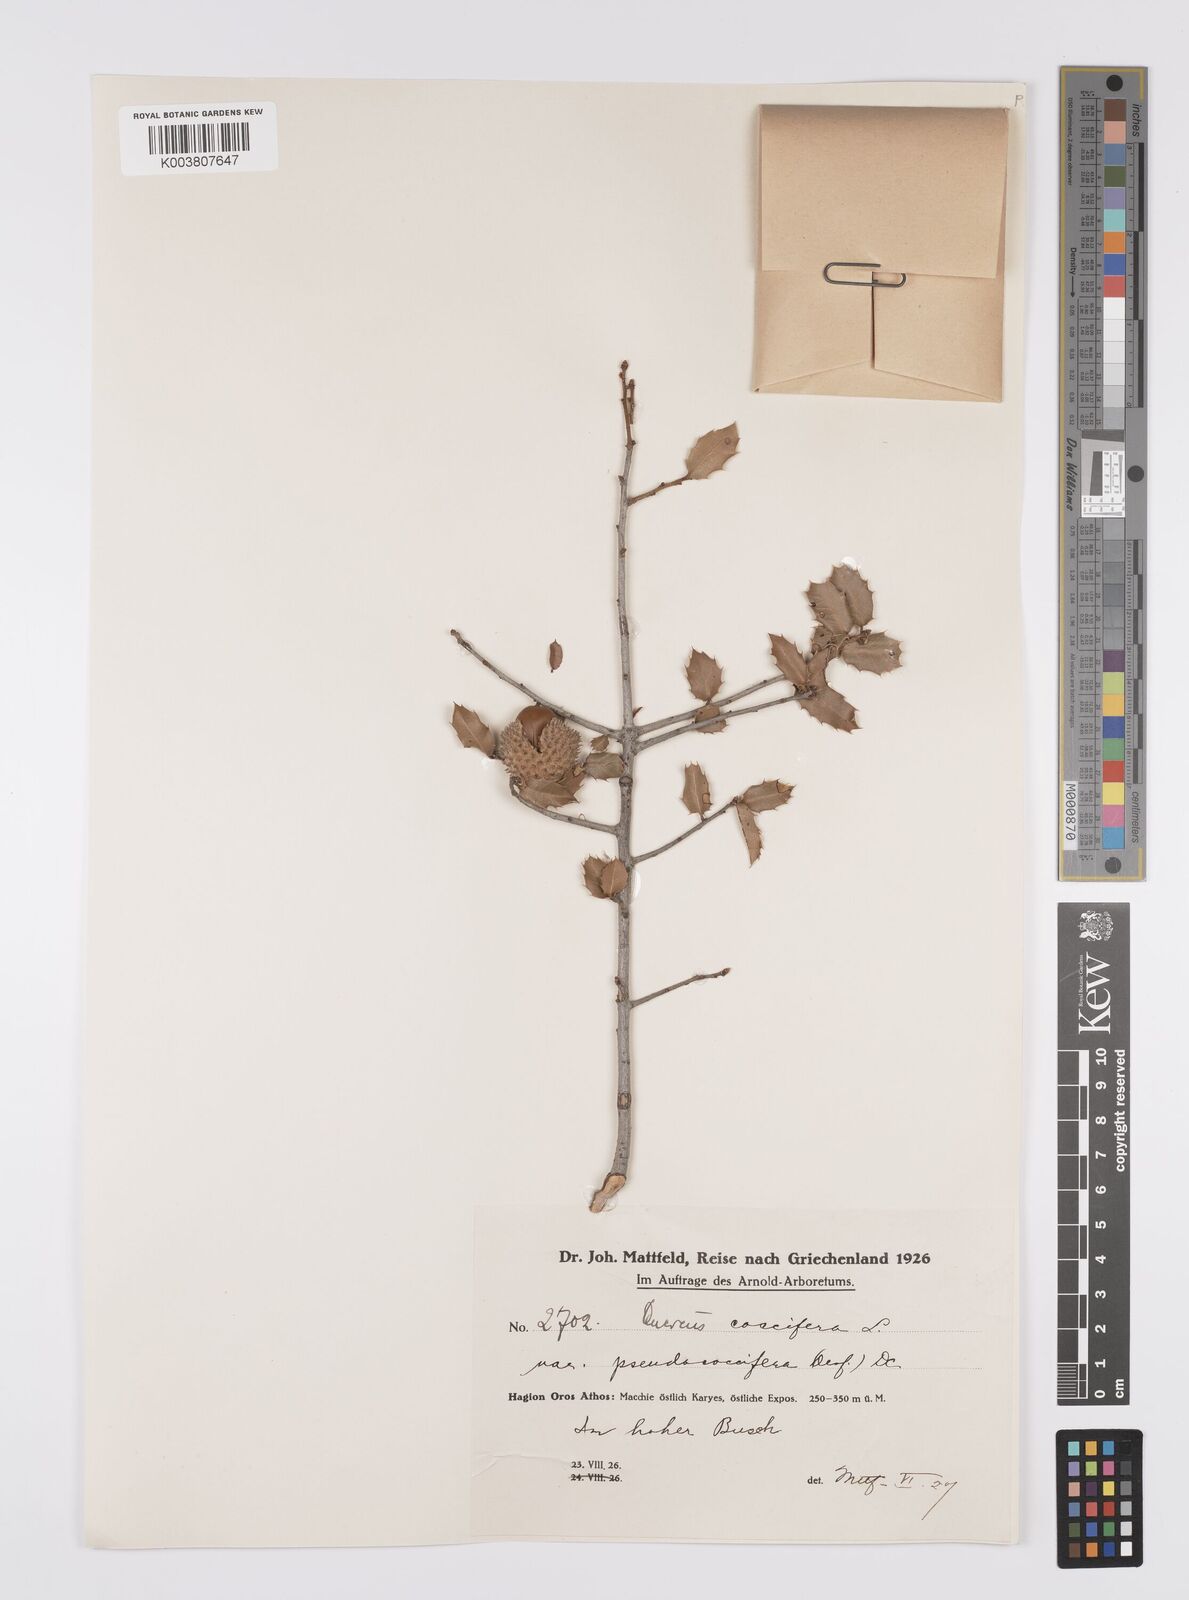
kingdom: Plantae
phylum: Tracheophyta
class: Magnoliopsida
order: Fagales
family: Fagaceae
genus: Quercus
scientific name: Quercus coccifera
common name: Kermes oak
